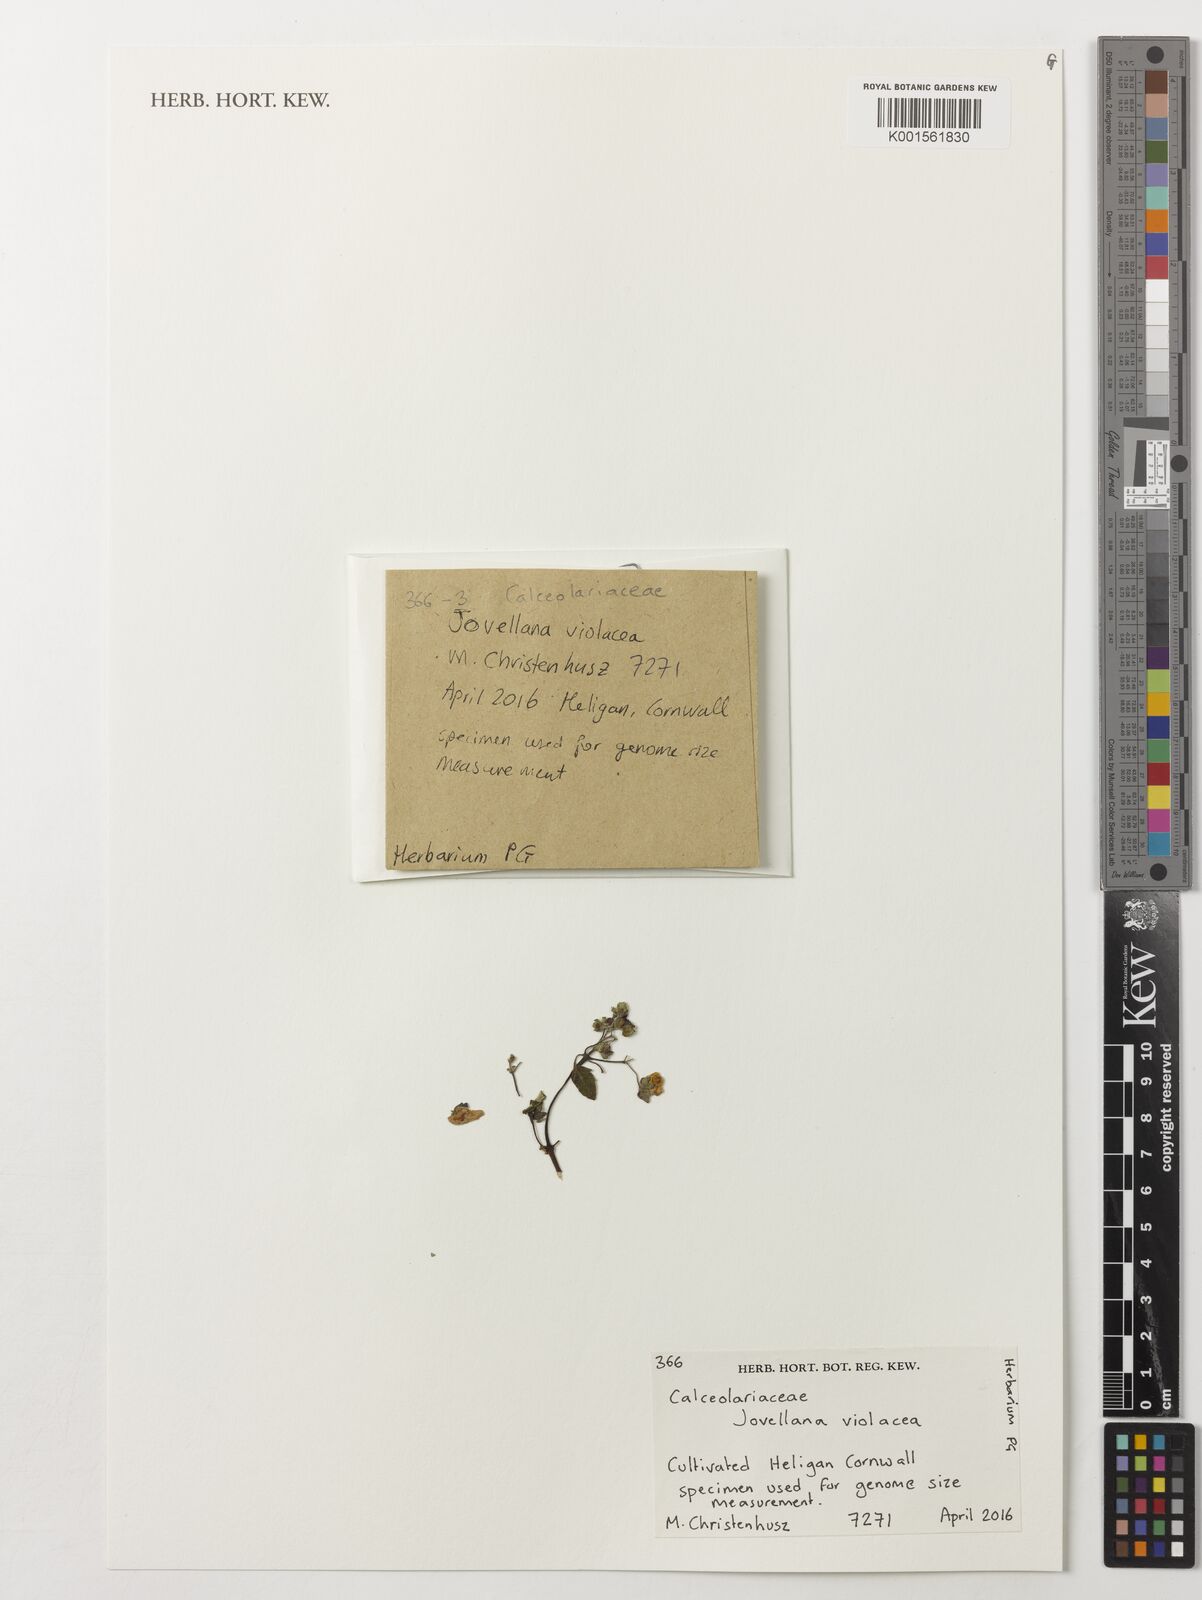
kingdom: Plantae
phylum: Tracheophyta
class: Magnoliopsida
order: Lamiales
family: Calceolariaceae
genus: Jovellana
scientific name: Jovellana violacea
